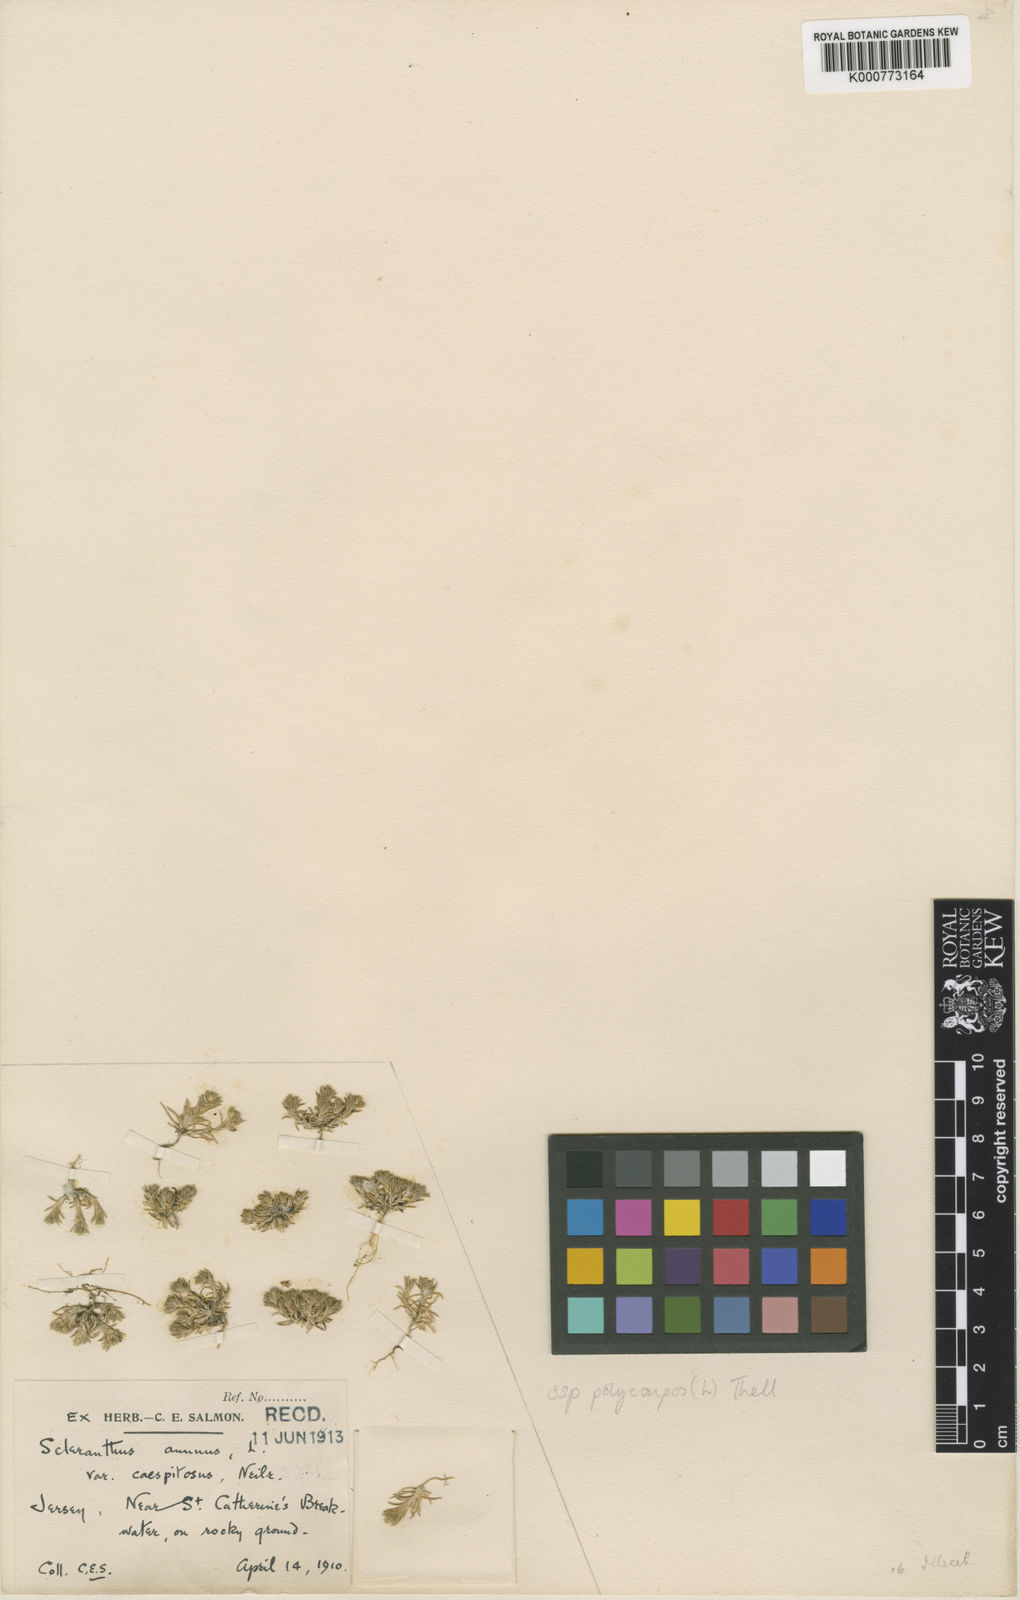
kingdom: Plantae
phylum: Tracheophyta
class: Magnoliopsida
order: Caryophyllales
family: Caryophyllaceae
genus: Scleranthus
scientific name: Scleranthus annuus
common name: Annual knawel
